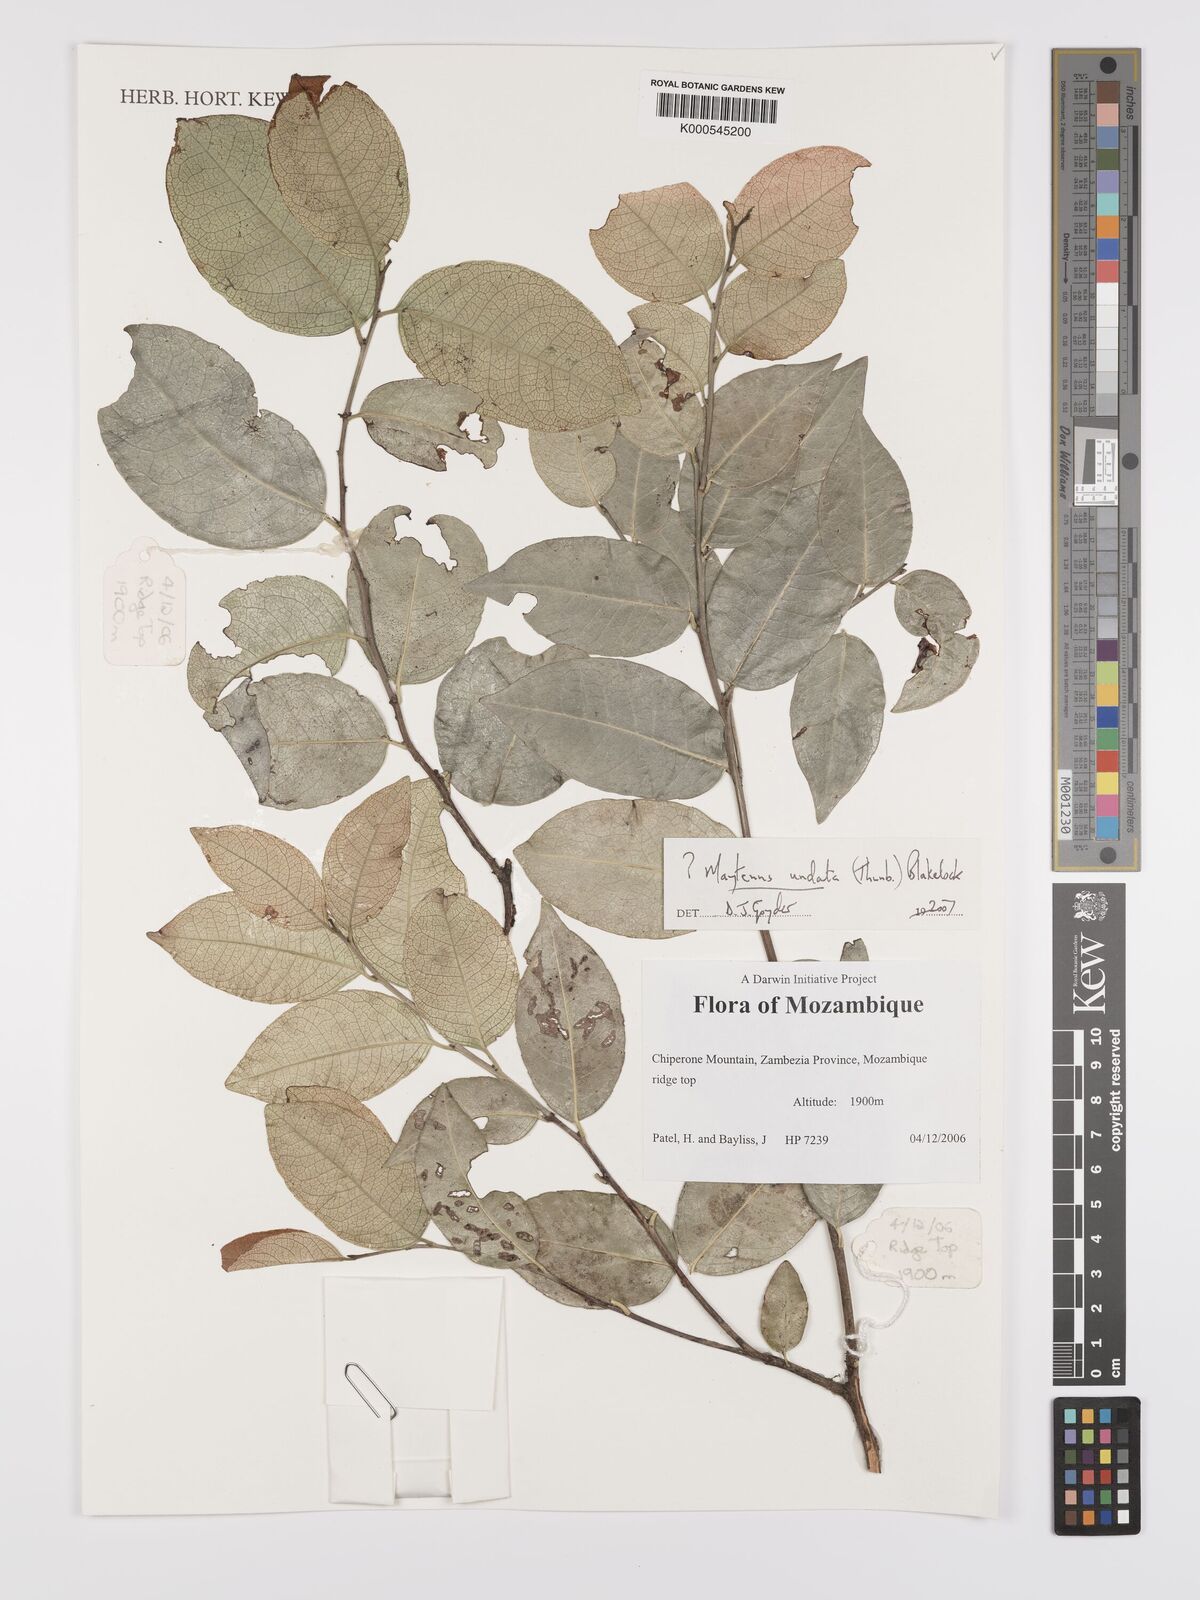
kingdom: Plantae
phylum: Tracheophyta
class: Magnoliopsida
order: Celastrales
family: Celastraceae
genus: Gymnosporia
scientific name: Gymnosporia undata
